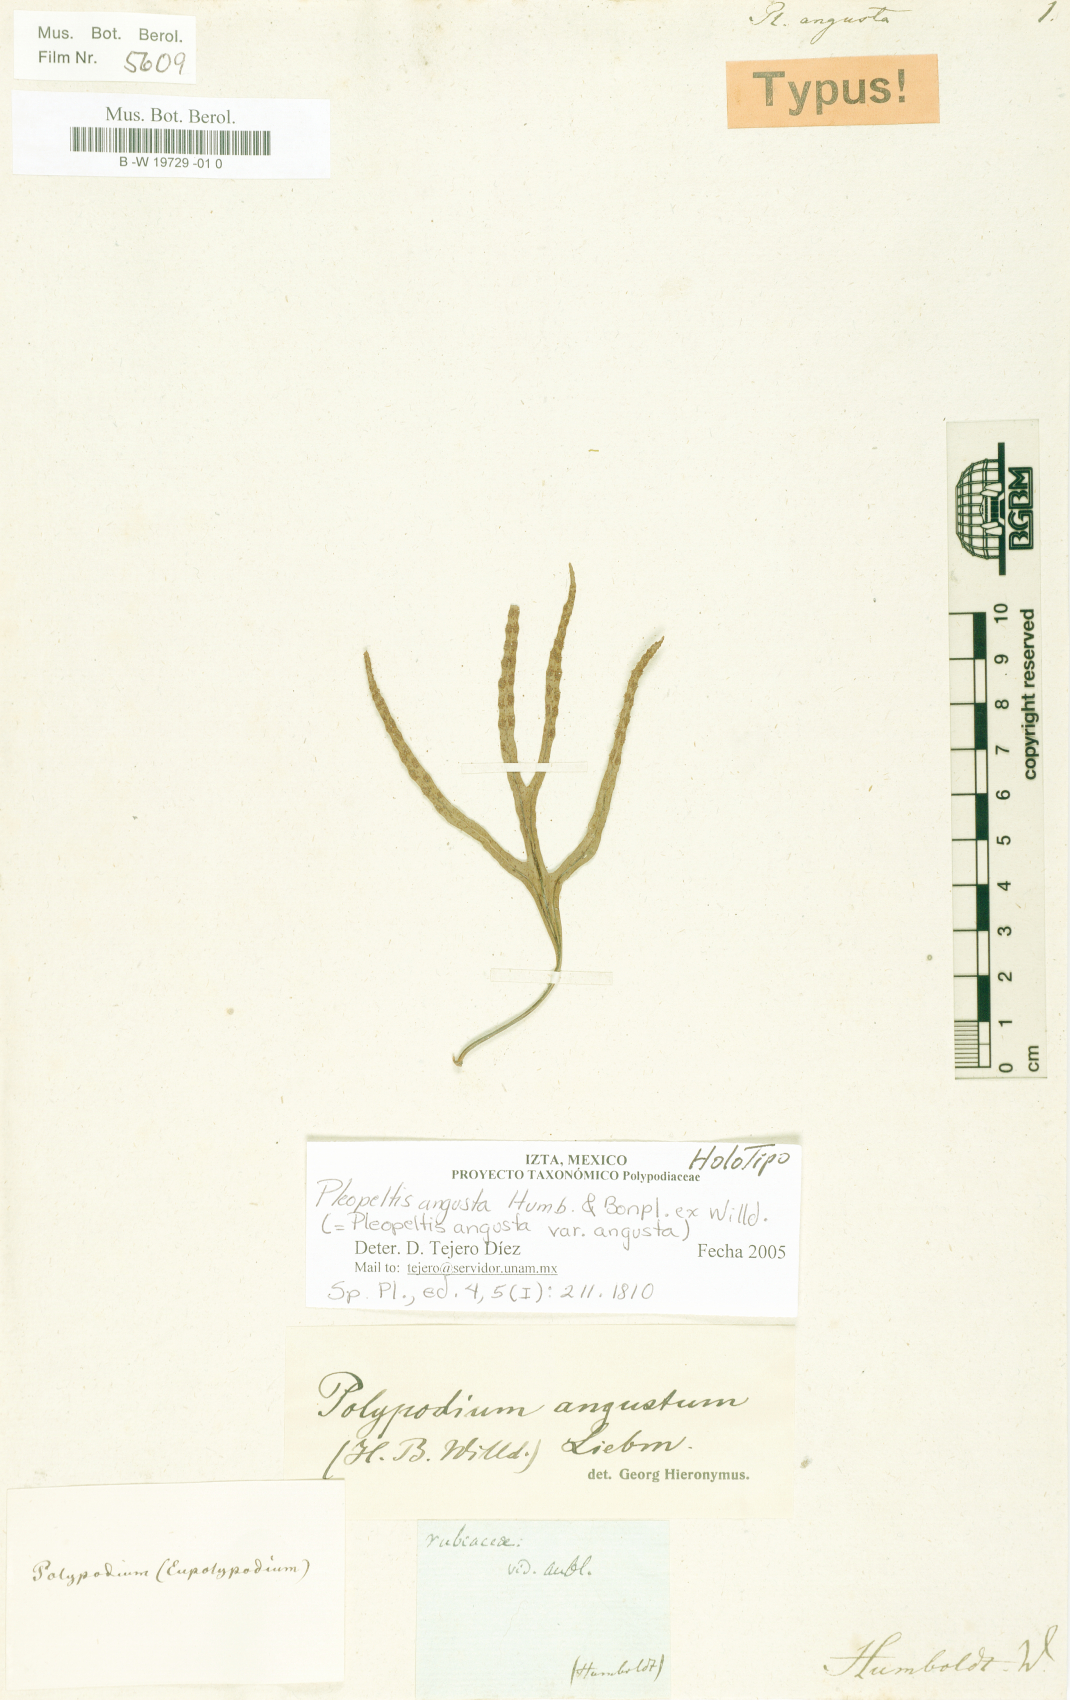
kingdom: Plantae
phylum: Tracheophyta
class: Polypodiopsida
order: Polypodiales
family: Polypodiaceae
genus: Pleopeltis
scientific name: Pleopeltis angusta
